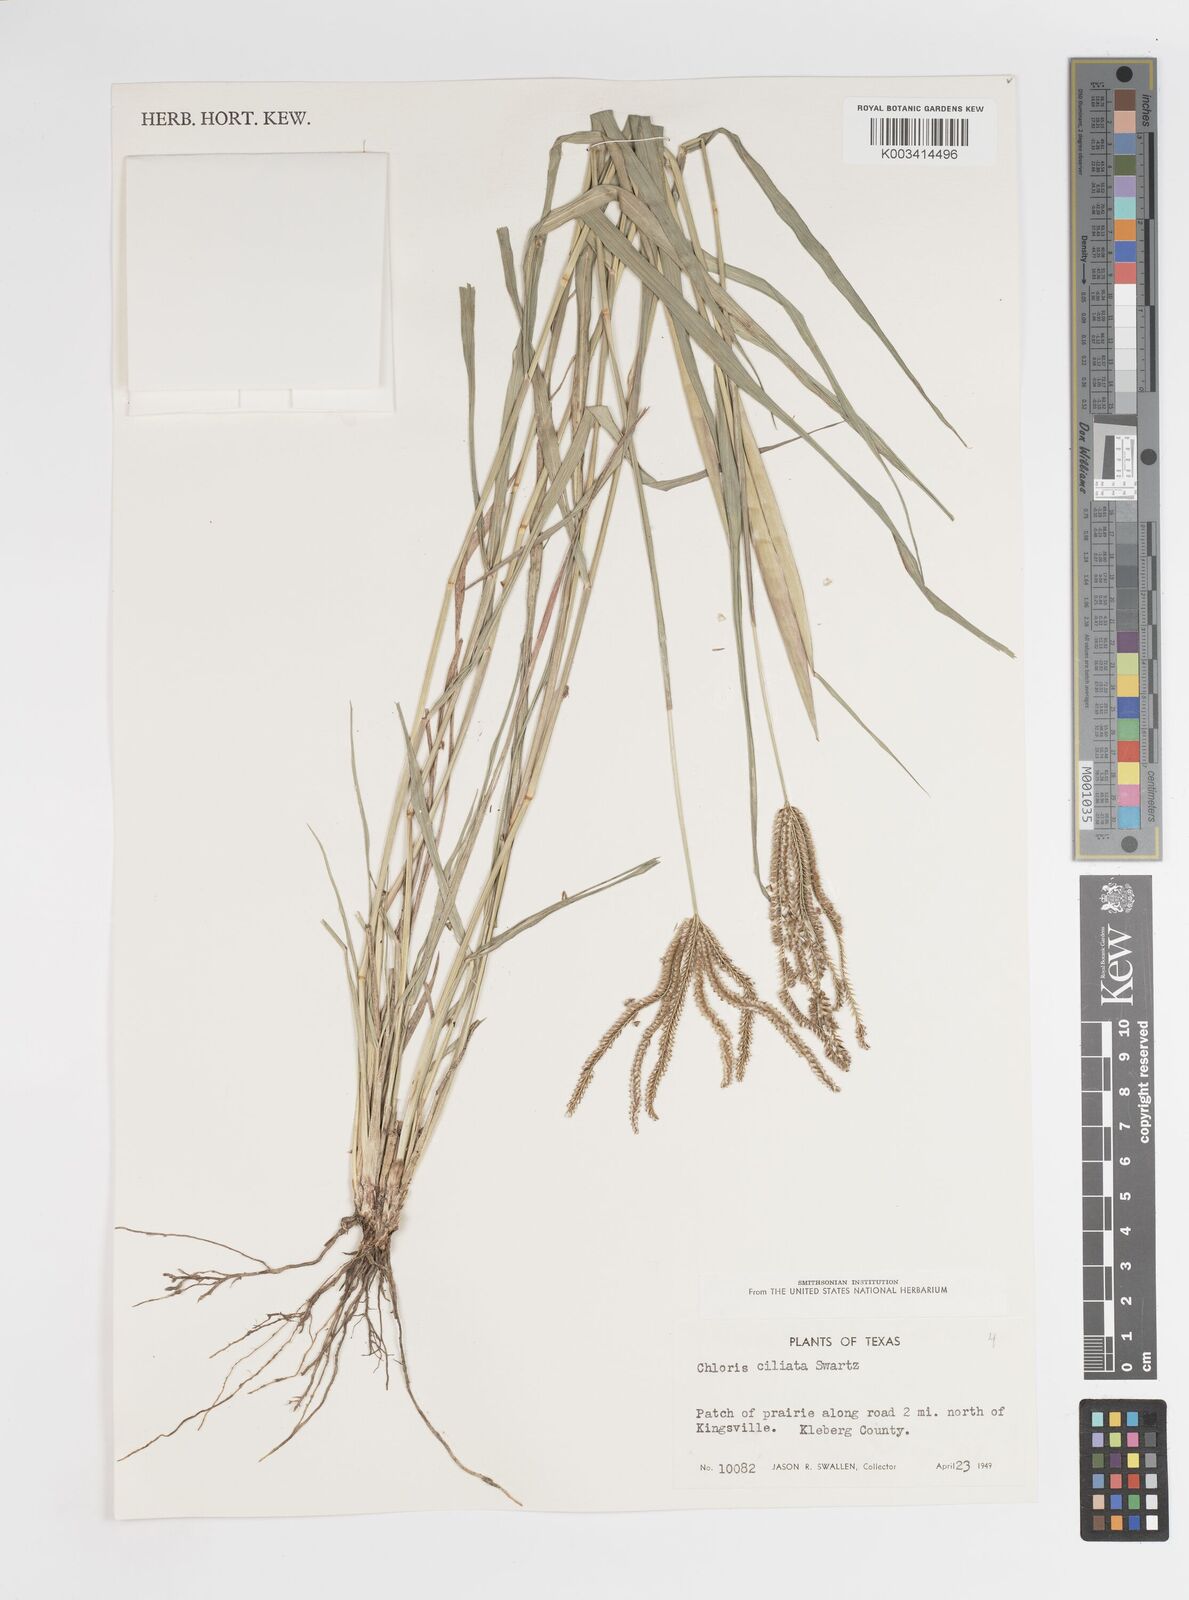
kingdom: Plantae
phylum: Tracheophyta
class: Liliopsida
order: Poales
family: Poaceae
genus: Stapfochloa
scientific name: Stapfochloa ciliata
